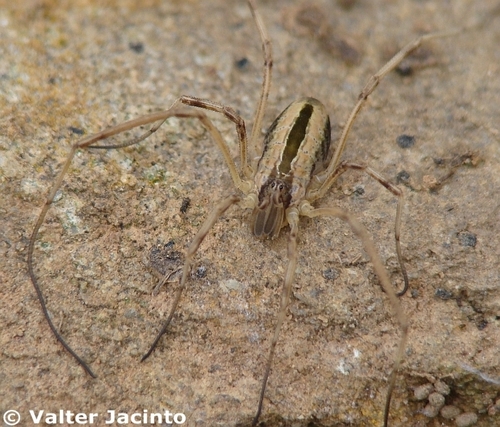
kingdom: Animalia
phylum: Arthropoda
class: Arachnida
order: Opiliones
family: Phalangiidae
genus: Dicranopalpus
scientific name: Dicranopalpus pulchellus
